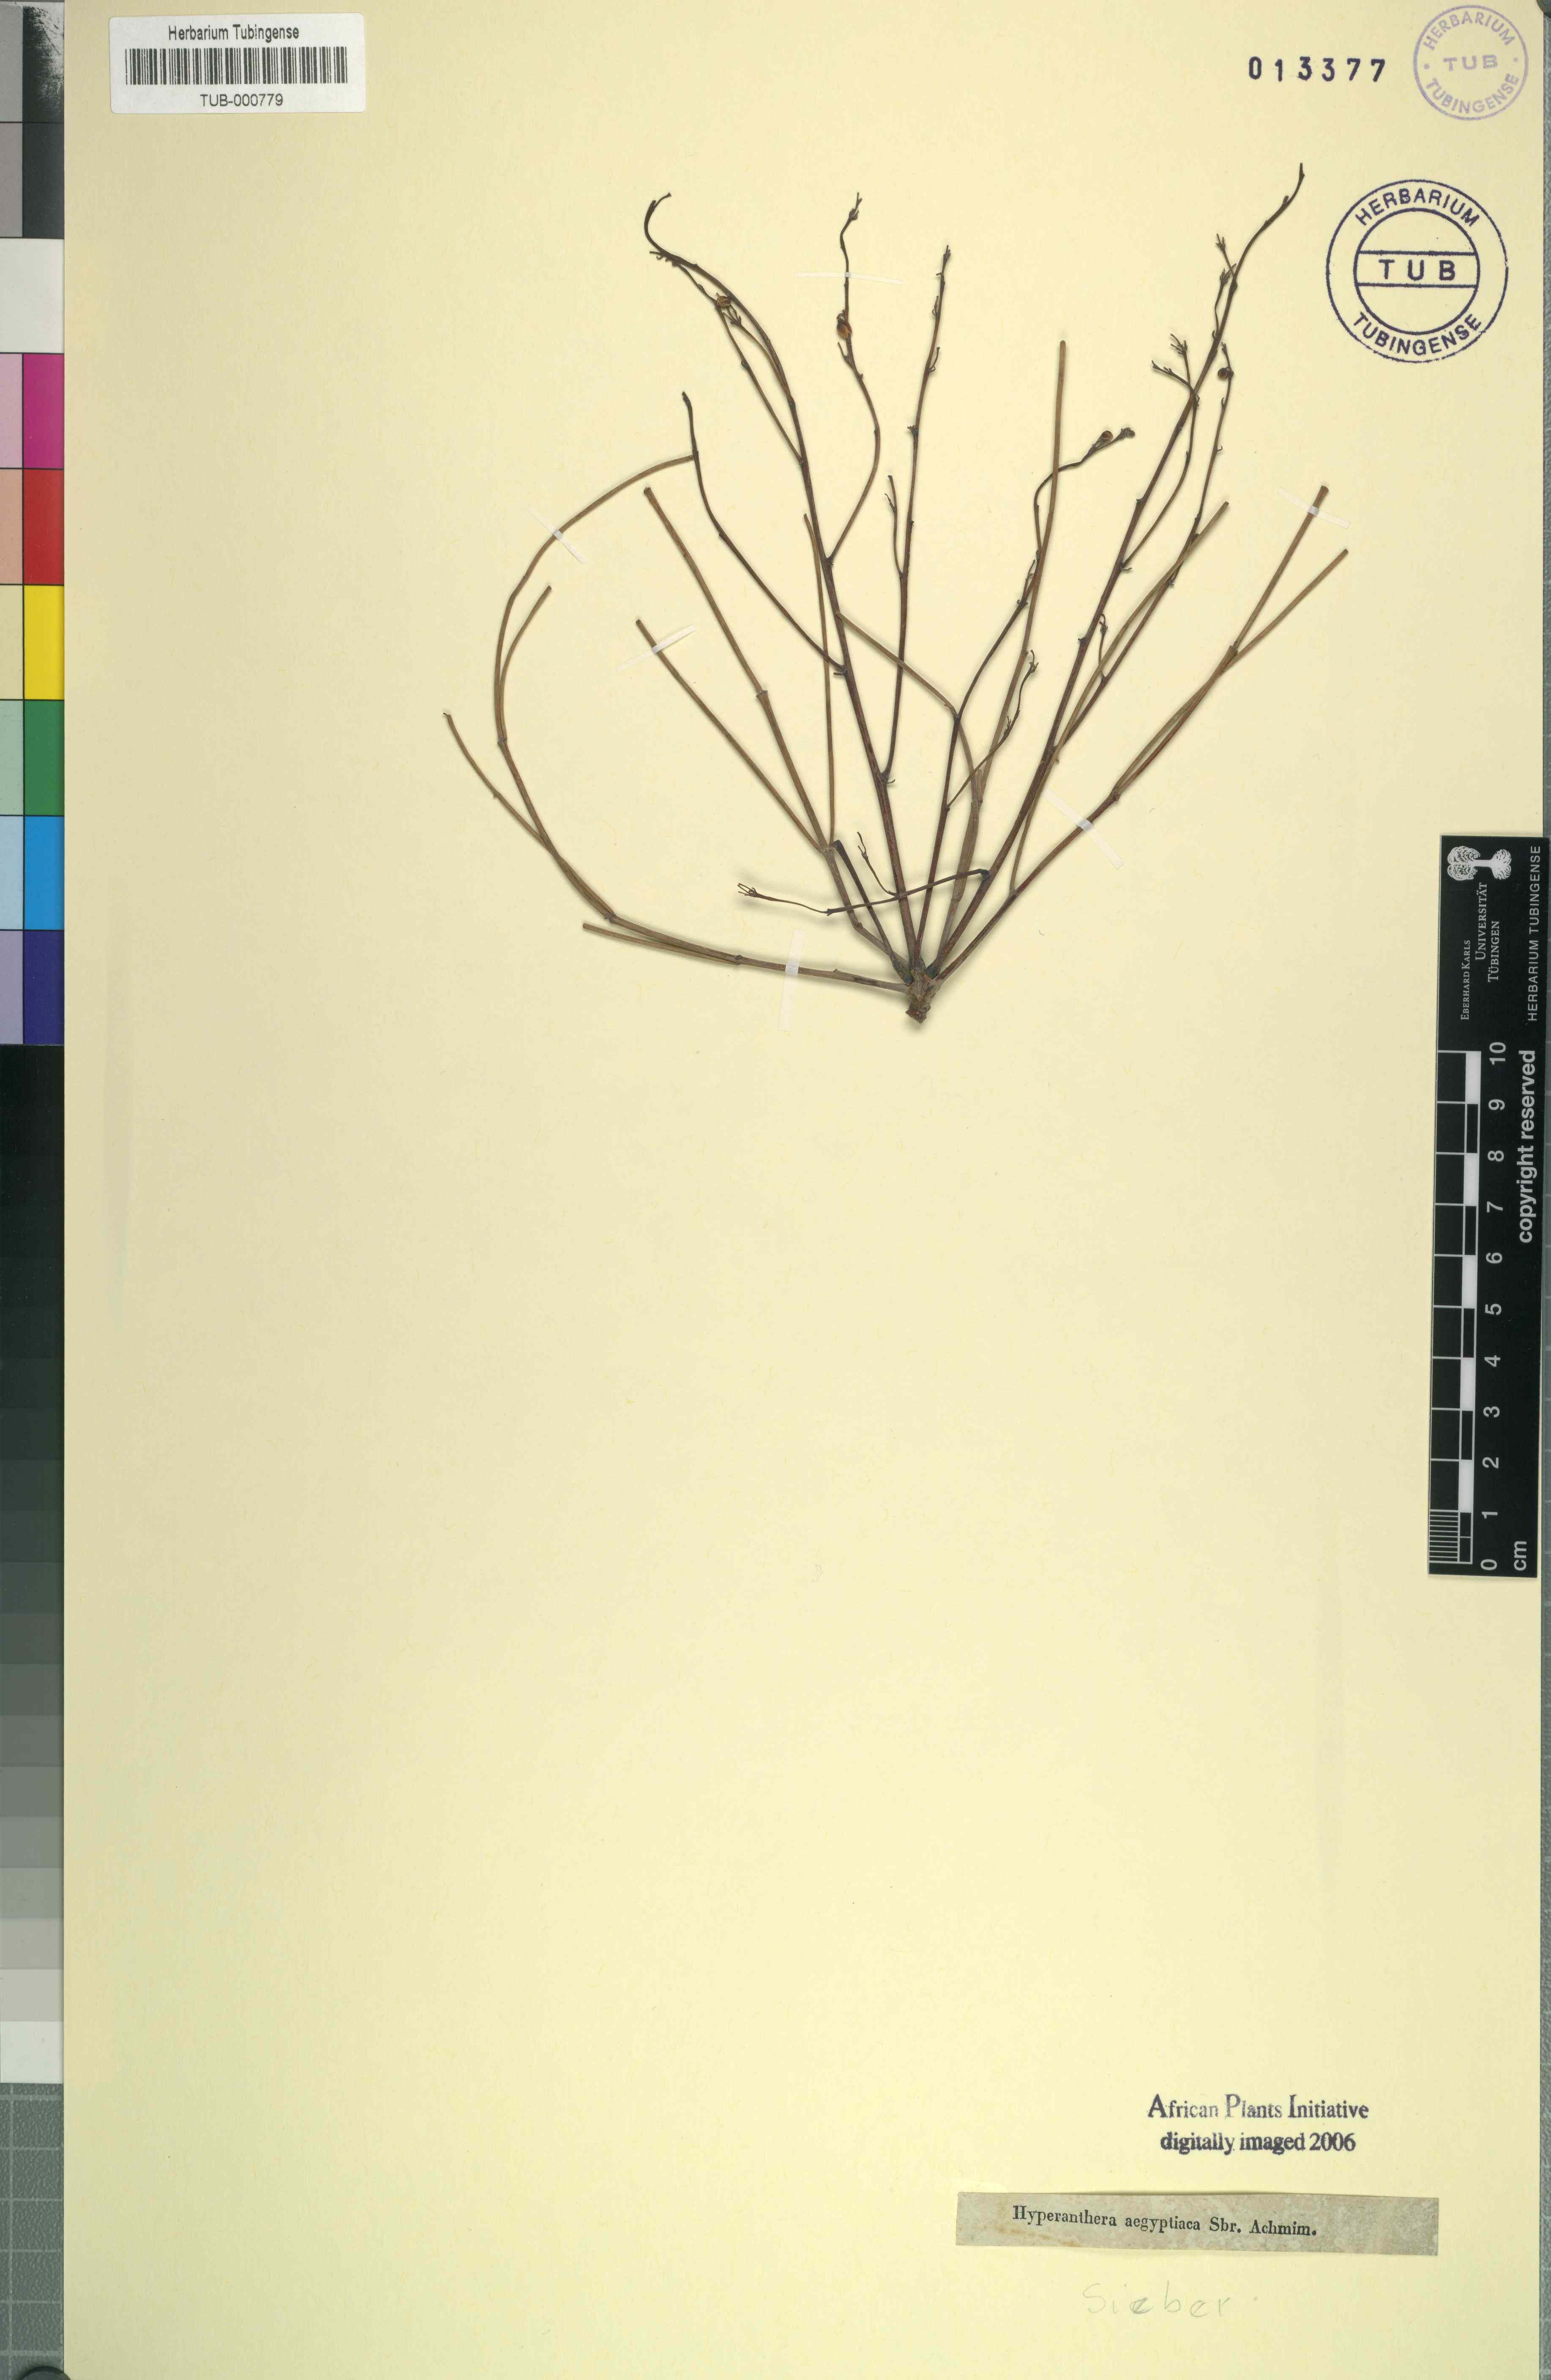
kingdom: Plantae
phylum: Tracheophyta
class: Magnoliopsida
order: Brassicales
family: Moringaceae
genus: Moringa
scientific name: Moringa
